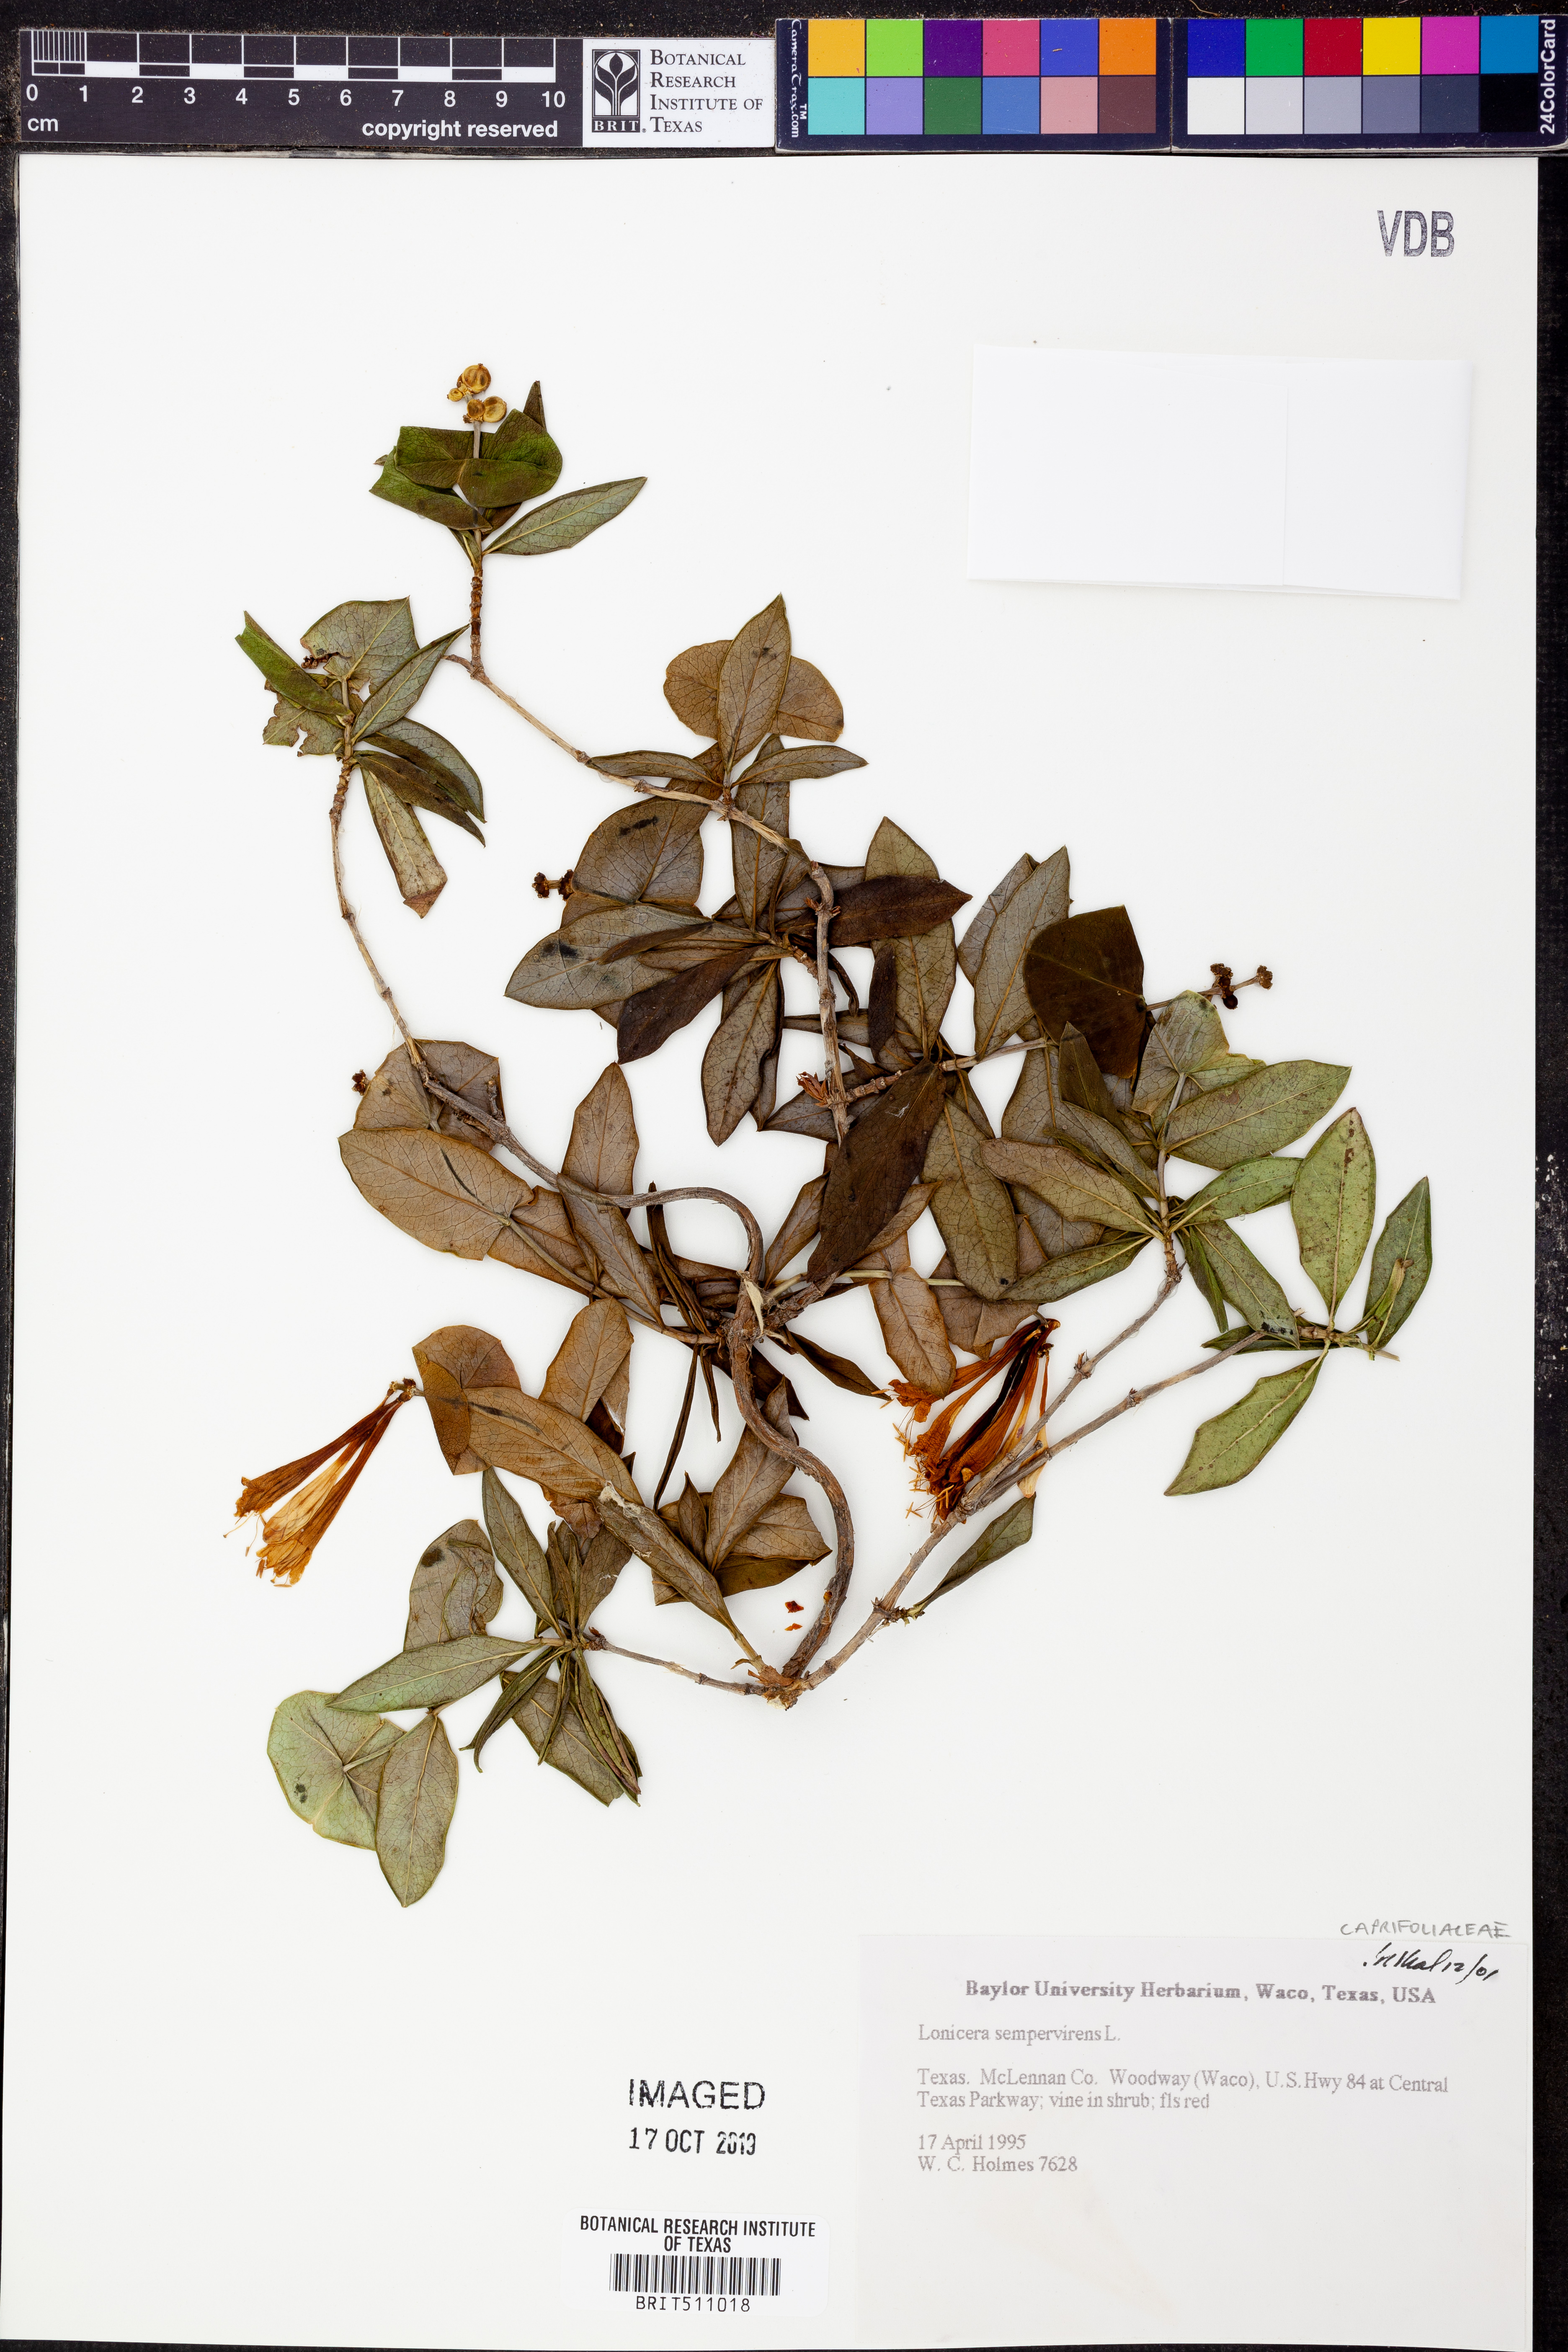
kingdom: Plantae
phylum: Tracheophyta
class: Magnoliopsida
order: Dipsacales
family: Caprifoliaceae
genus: Lonicera
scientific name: Lonicera sempervirens
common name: Coral honeysuckle
